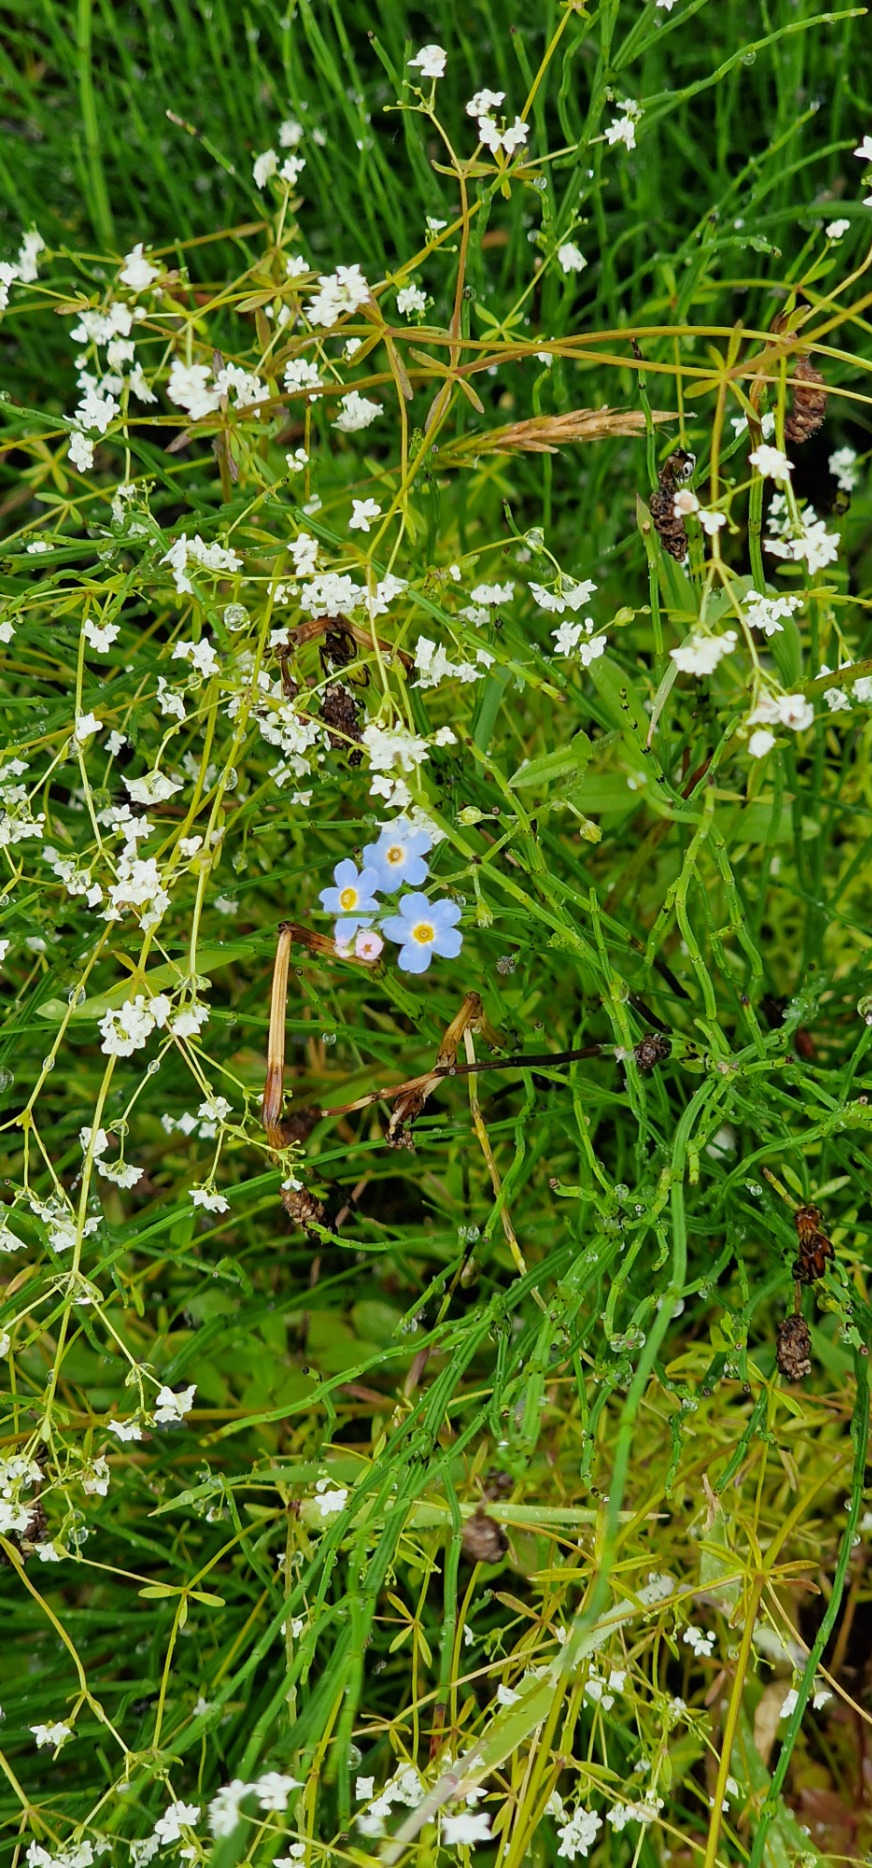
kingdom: Plantae
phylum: Tracheophyta
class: Magnoliopsida
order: Boraginales
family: Boraginaceae
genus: Myosotis
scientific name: Myosotis scorpioides
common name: Eng-forglemmigej
